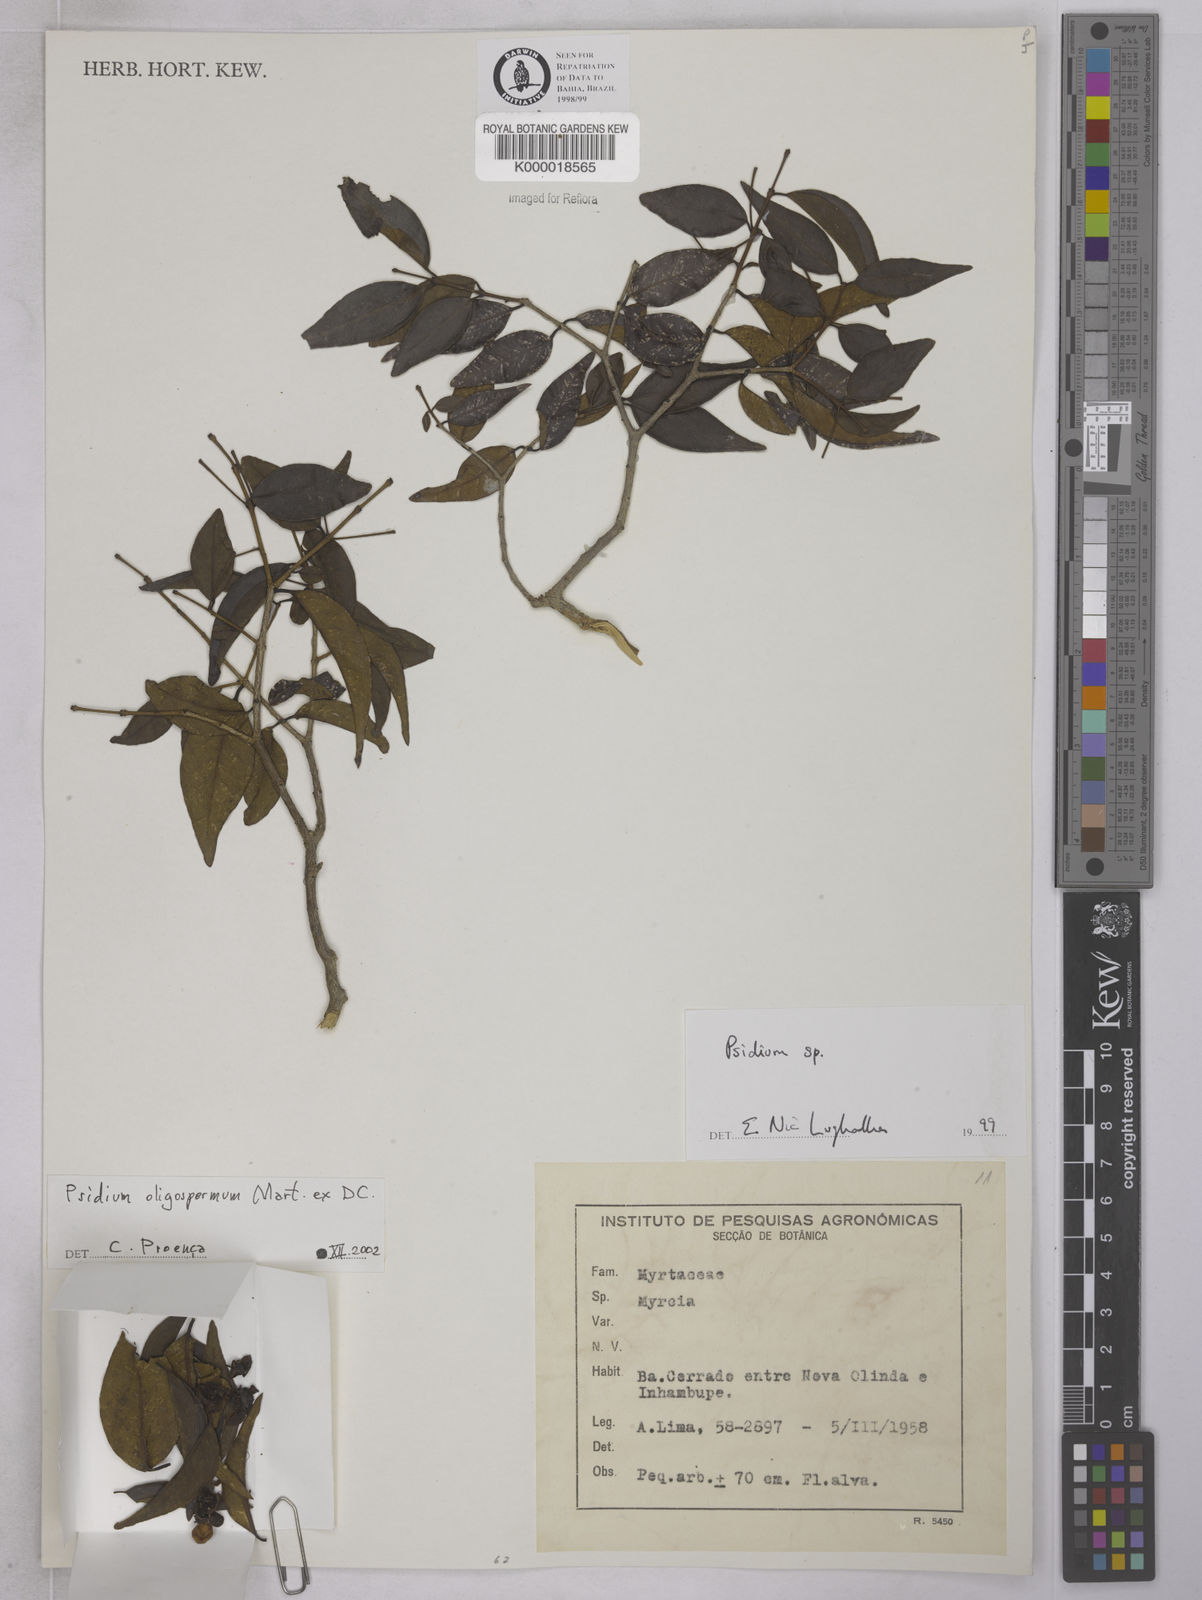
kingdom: Plantae
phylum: Tracheophyta
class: Magnoliopsida
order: Myrtales
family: Myrtaceae
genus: Psidium
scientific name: Psidium
